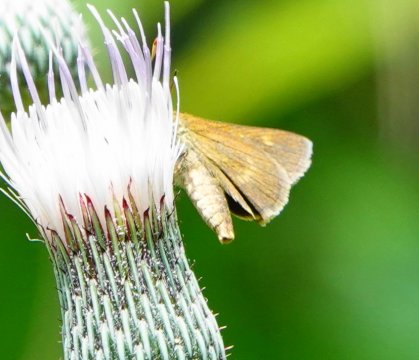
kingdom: Animalia
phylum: Arthropoda
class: Insecta
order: Lepidoptera
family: Hesperiidae
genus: Polites
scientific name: Polites themistocles
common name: Tawny-edged Skipper
